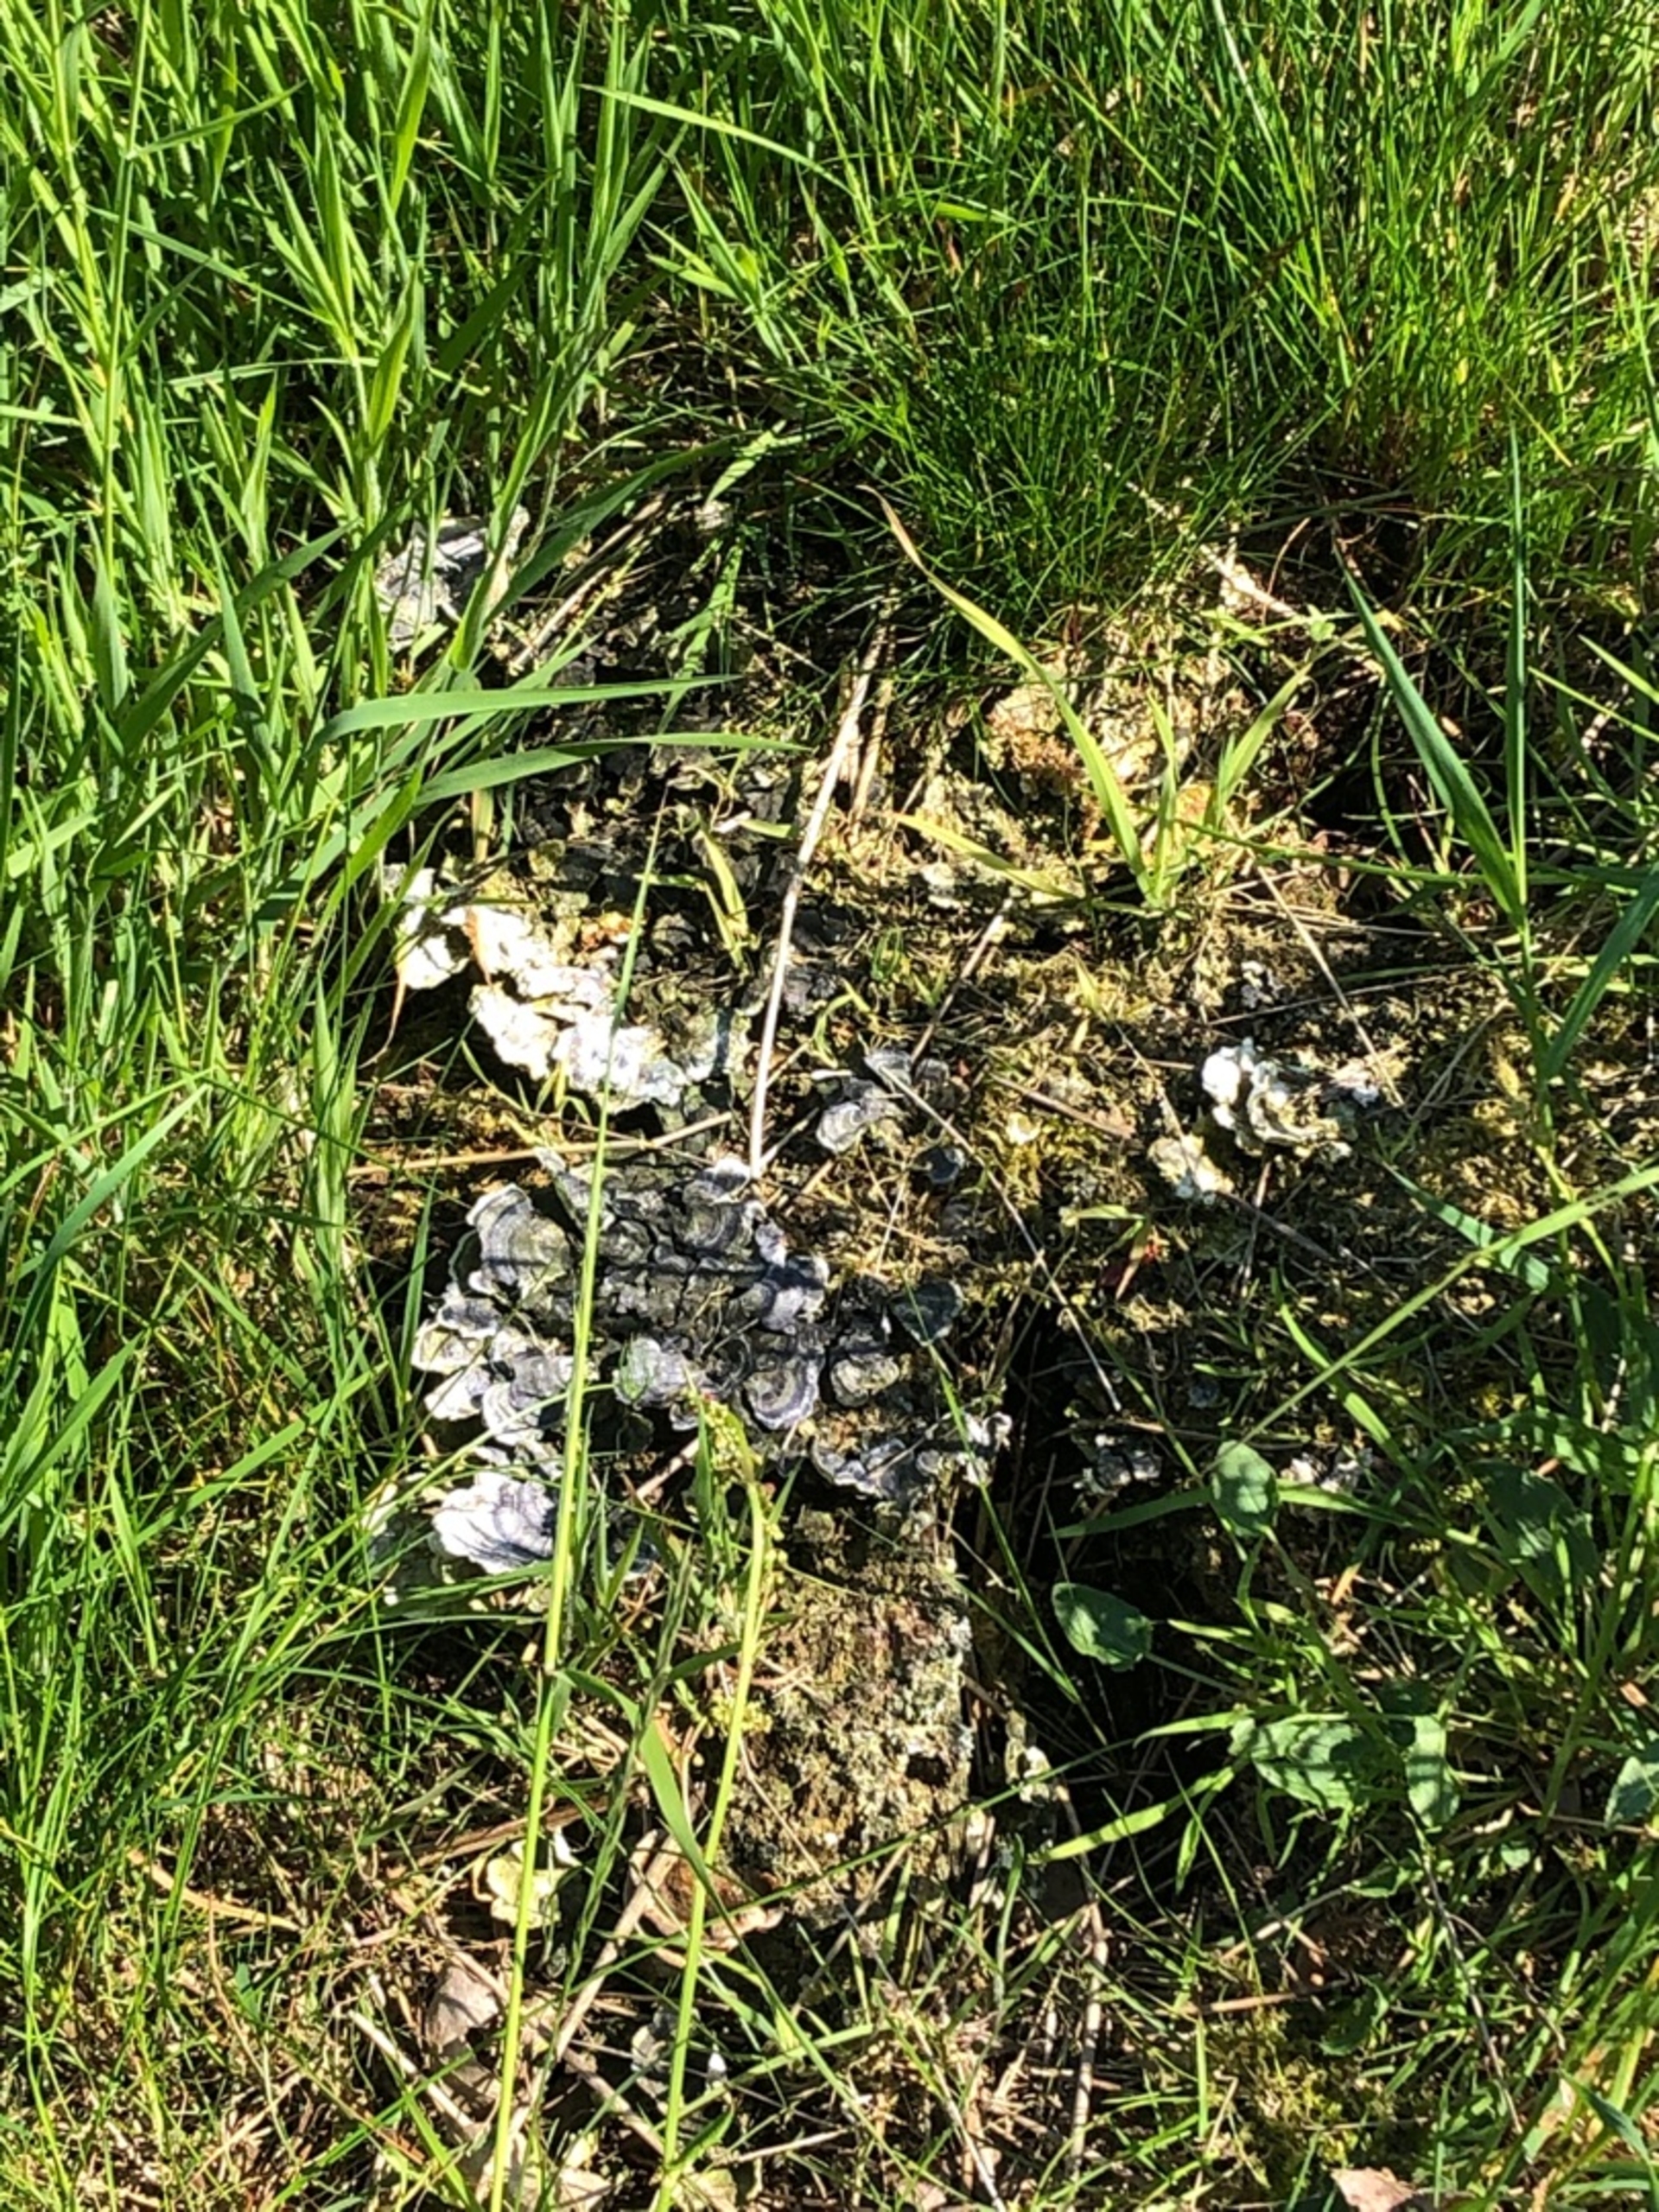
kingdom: Fungi
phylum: Basidiomycota
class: Agaricomycetes
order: Polyporales
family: Polyporaceae
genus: Trametes
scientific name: Trametes versicolor
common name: Broget læderporesvamp
